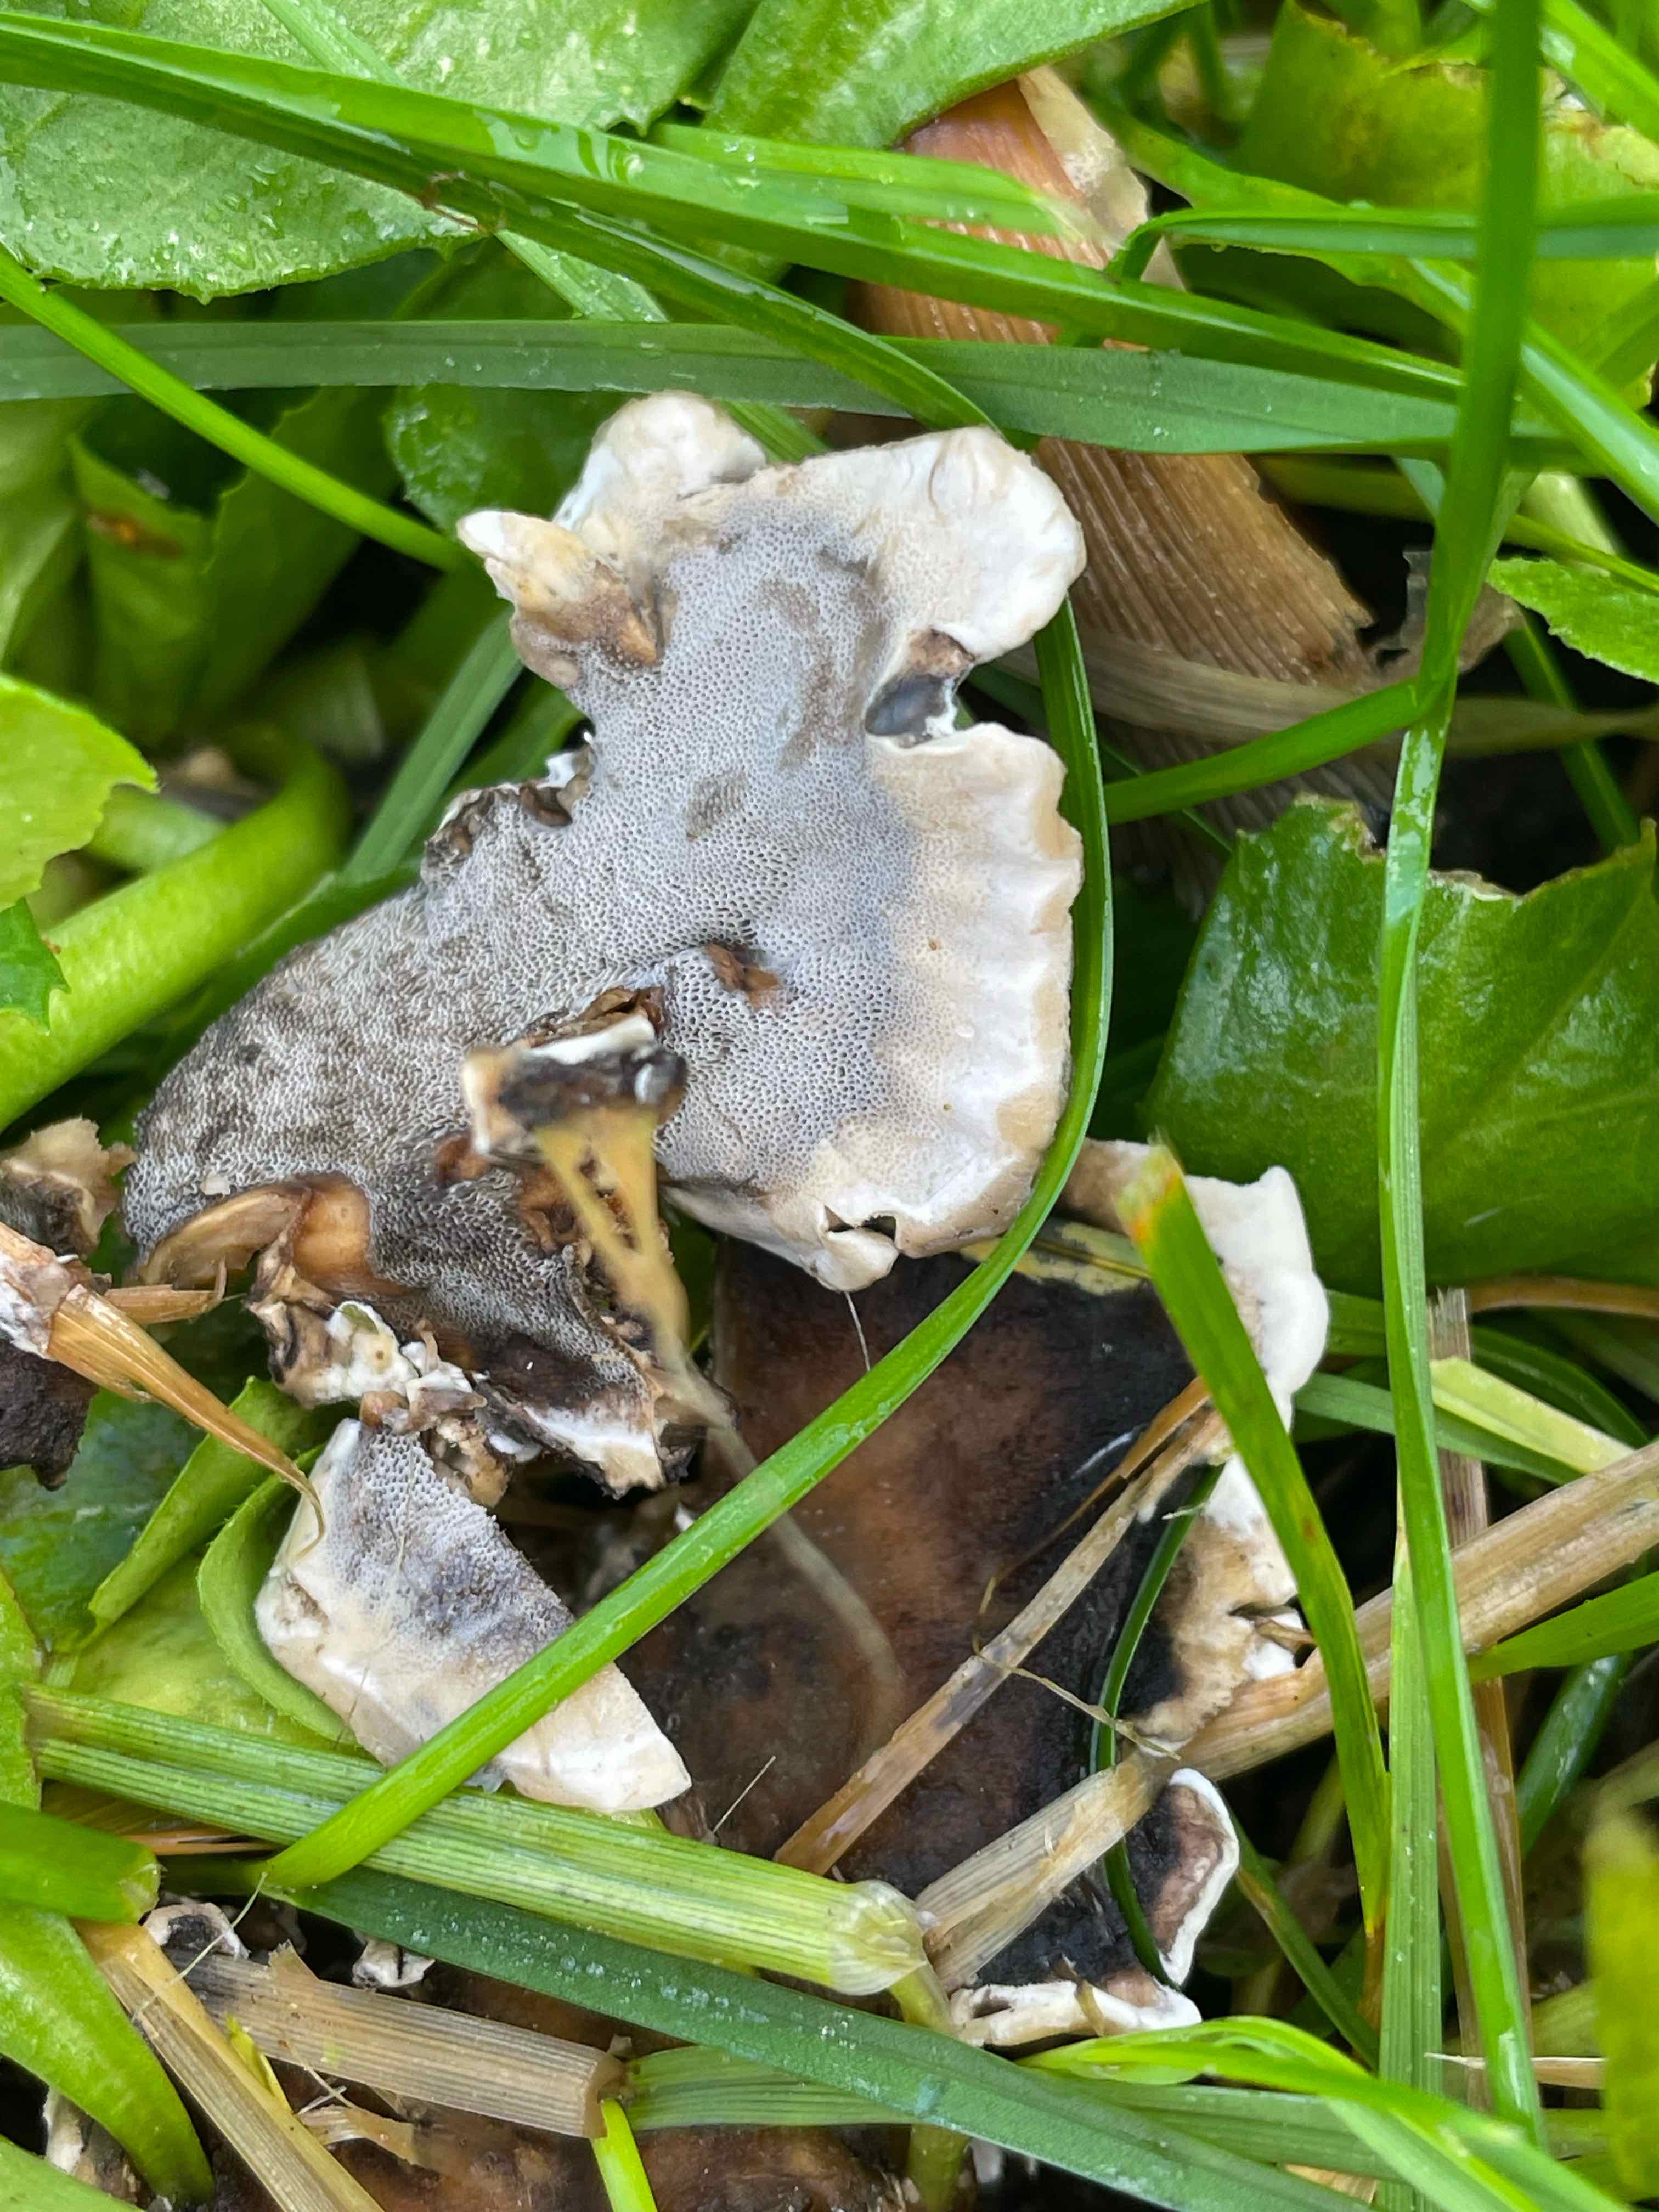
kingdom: Fungi
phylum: Basidiomycota
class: Agaricomycetes
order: Polyporales
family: Phanerochaetaceae
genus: Bjerkandera
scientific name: Bjerkandera adusta
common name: sveden sodporesvamp
